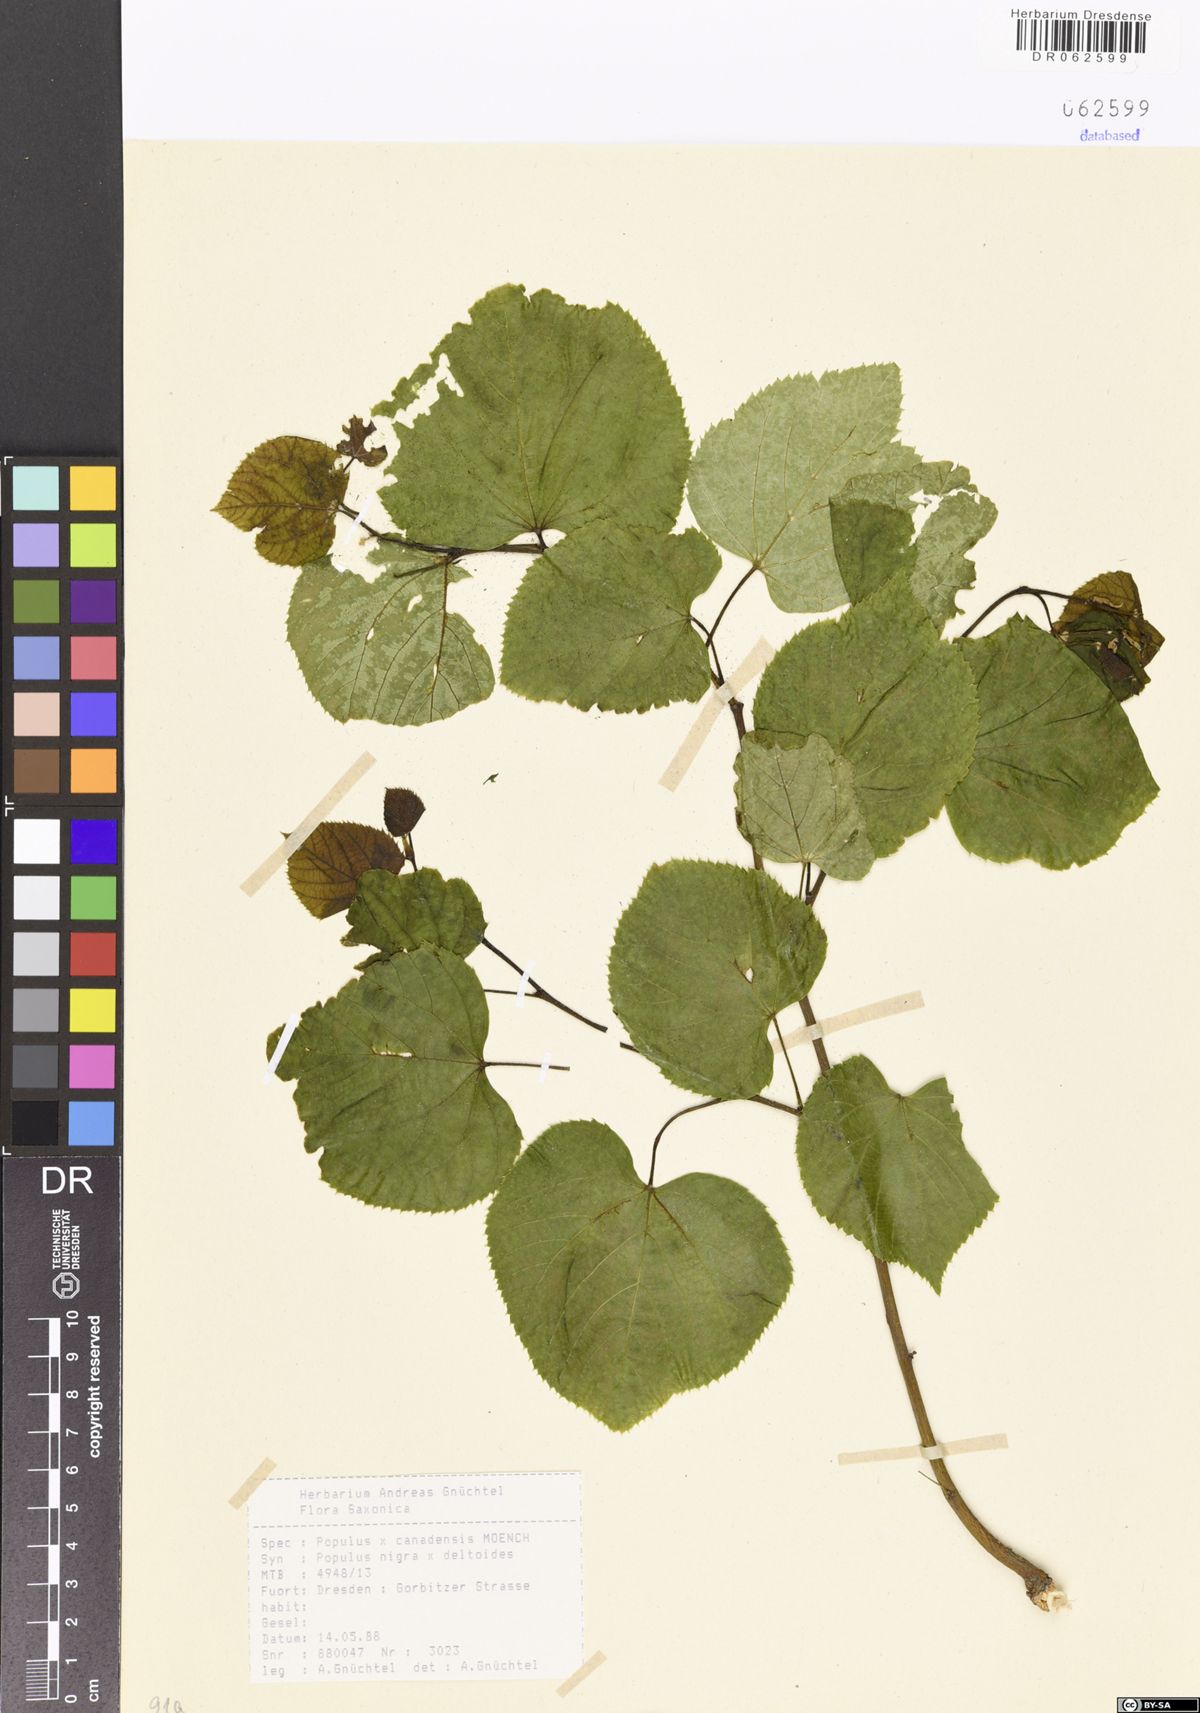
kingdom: Plantae
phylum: Tracheophyta
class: Magnoliopsida
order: Malpighiales
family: Salicaceae
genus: Populus
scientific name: Populus canadensis
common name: Carolina poplar
